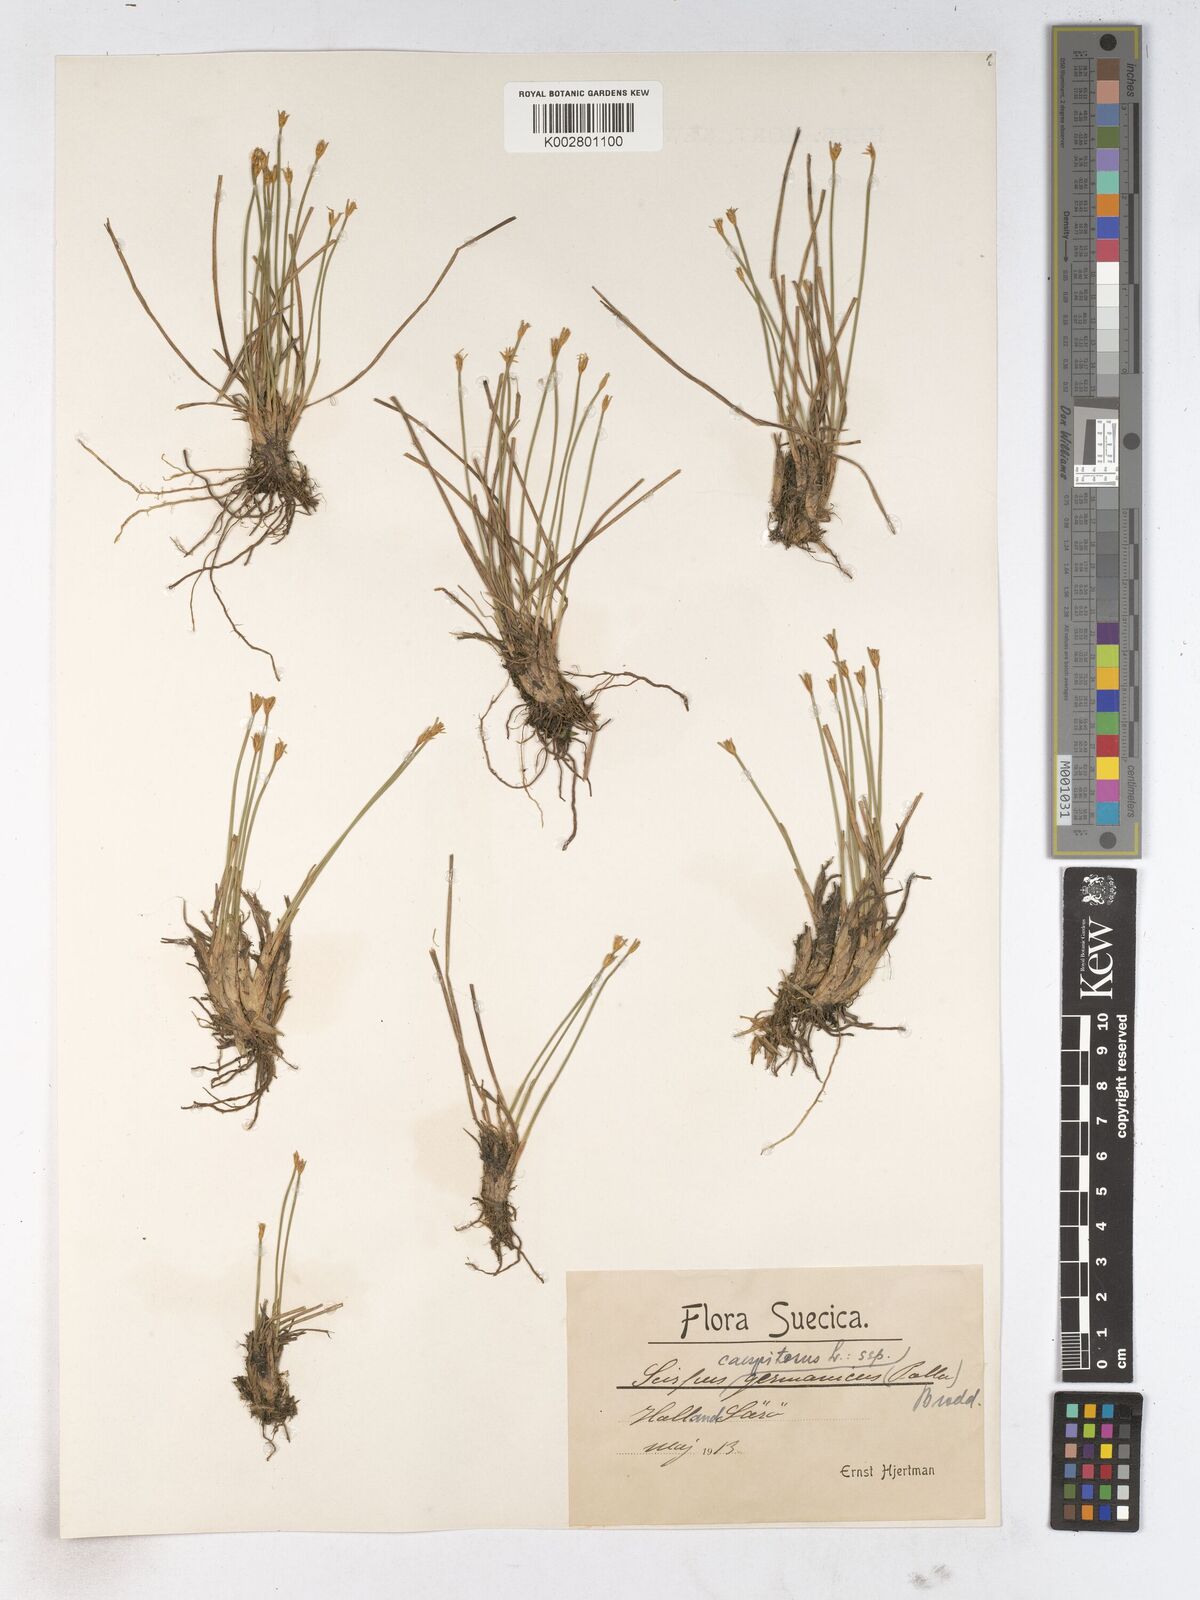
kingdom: Plantae
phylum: Tracheophyta
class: Liliopsida
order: Poales
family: Cyperaceae
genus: Trichophorum
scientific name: Trichophorum cespitosum
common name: Cespitose bulrush
